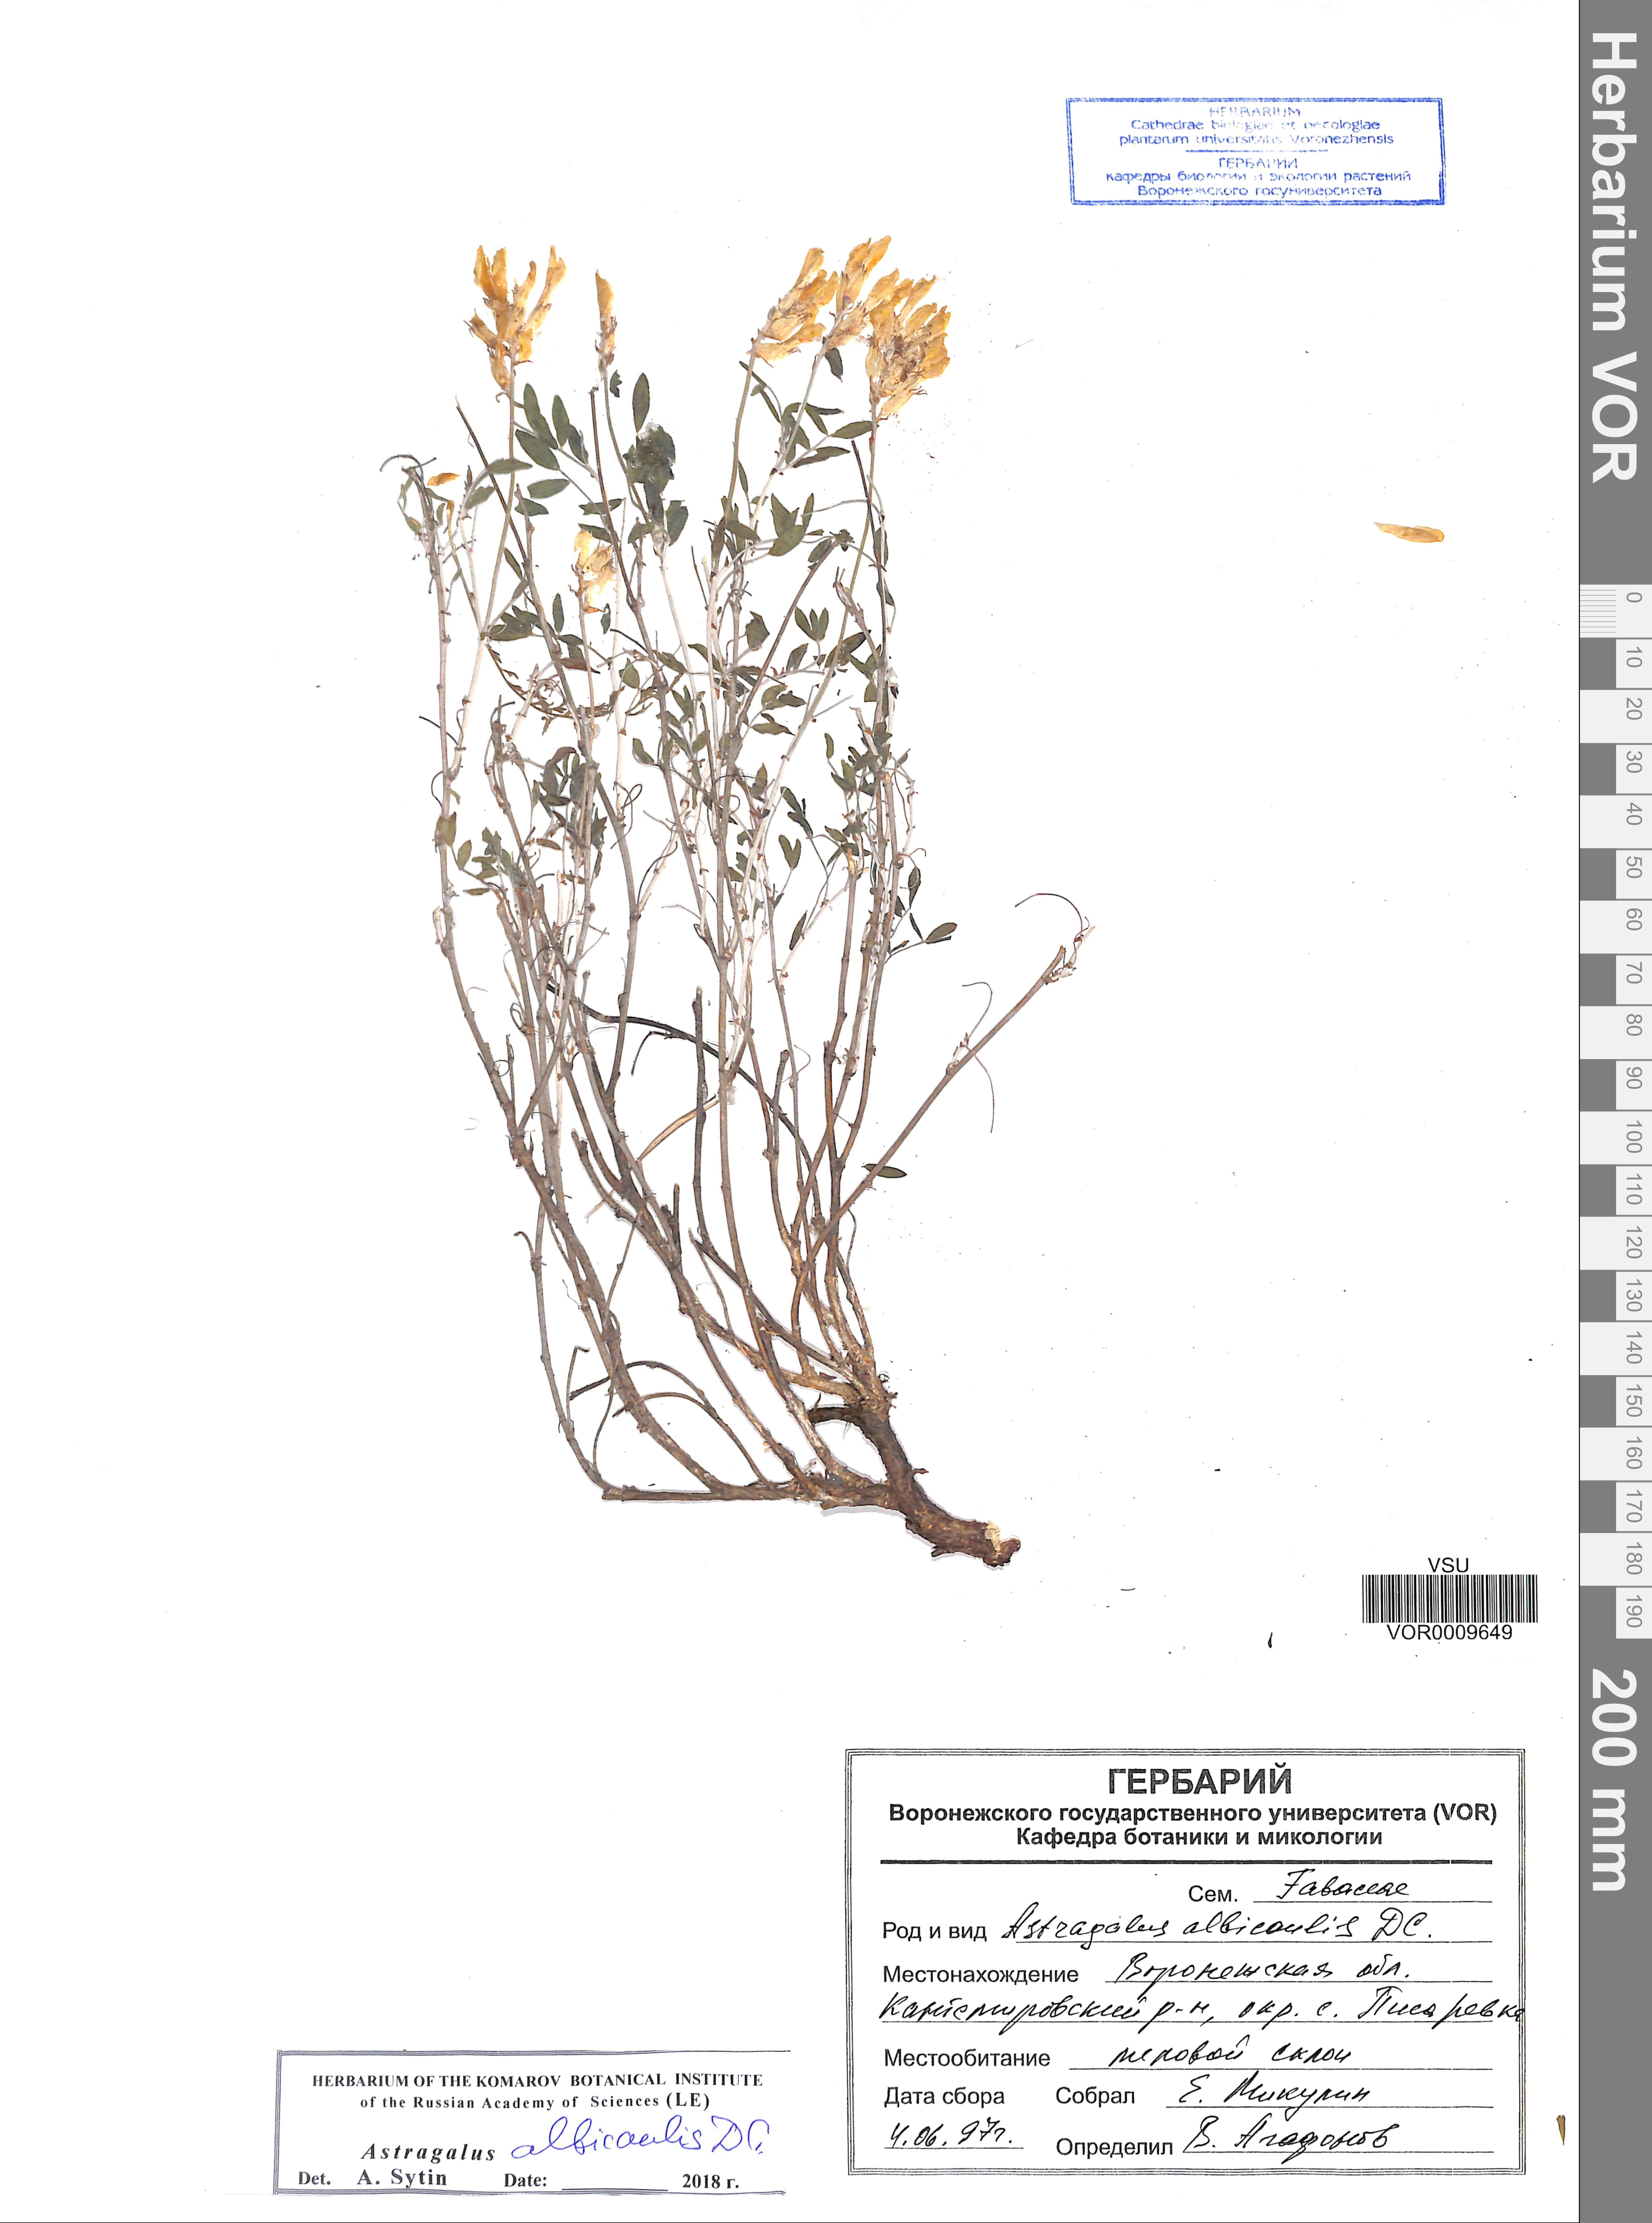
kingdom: Plantae
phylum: Tracheophyta
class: Magnoliopsida
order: Fabales
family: Fabaceae
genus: Astragalus
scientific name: Astragalus albicaulis
